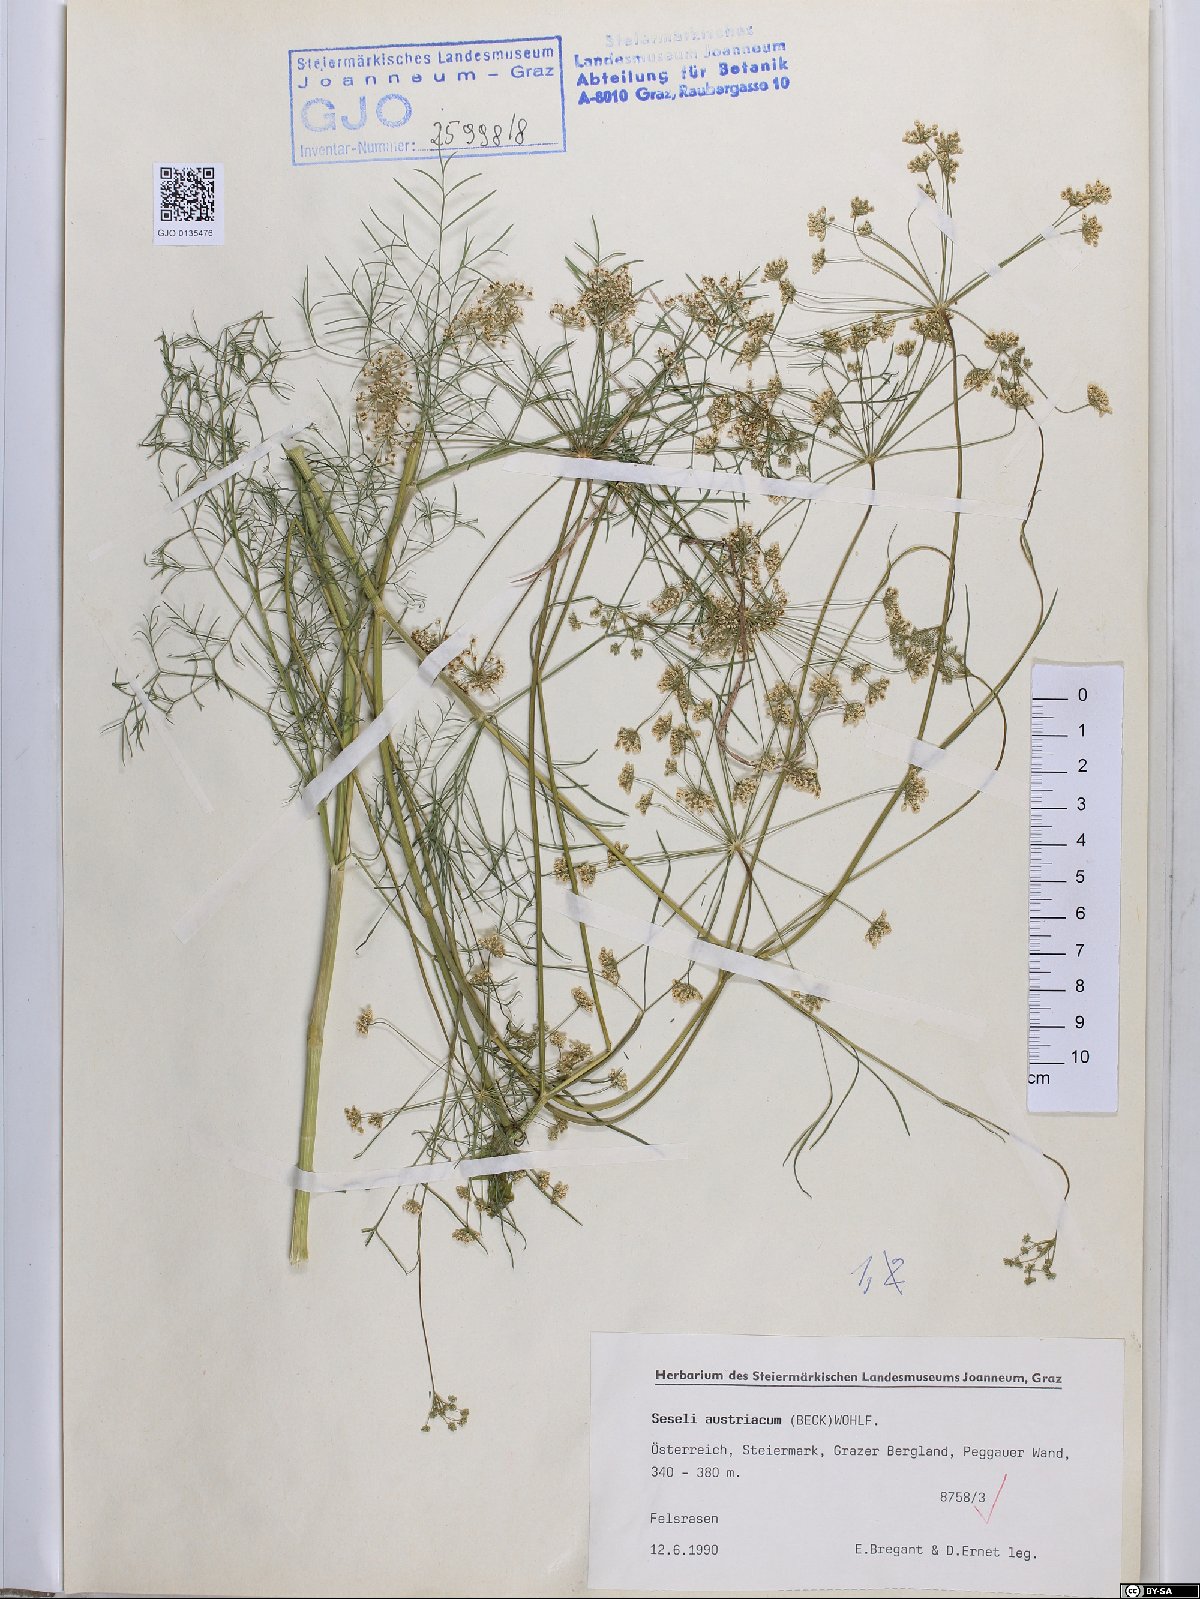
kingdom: Plantae
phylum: Tracheophyta
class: Magnoliopsida
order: Apiales
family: Apiaceae
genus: Seseli
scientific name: Seseli austriacum
